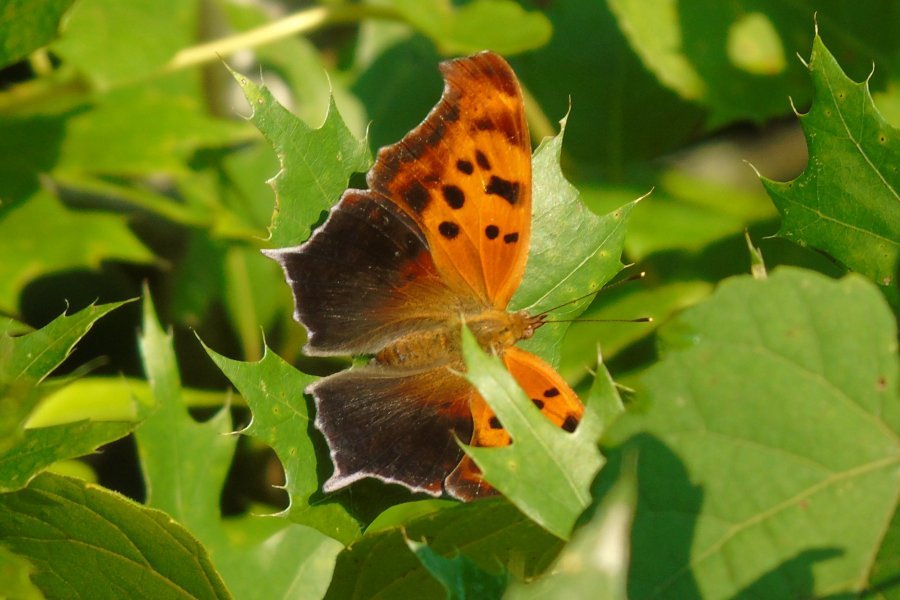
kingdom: Animalia
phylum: Arthropoda
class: Insecta
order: Lepidoptera
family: Nymphalidae
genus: Polygonia
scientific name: Polygonia interrogationis
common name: Question Mark
